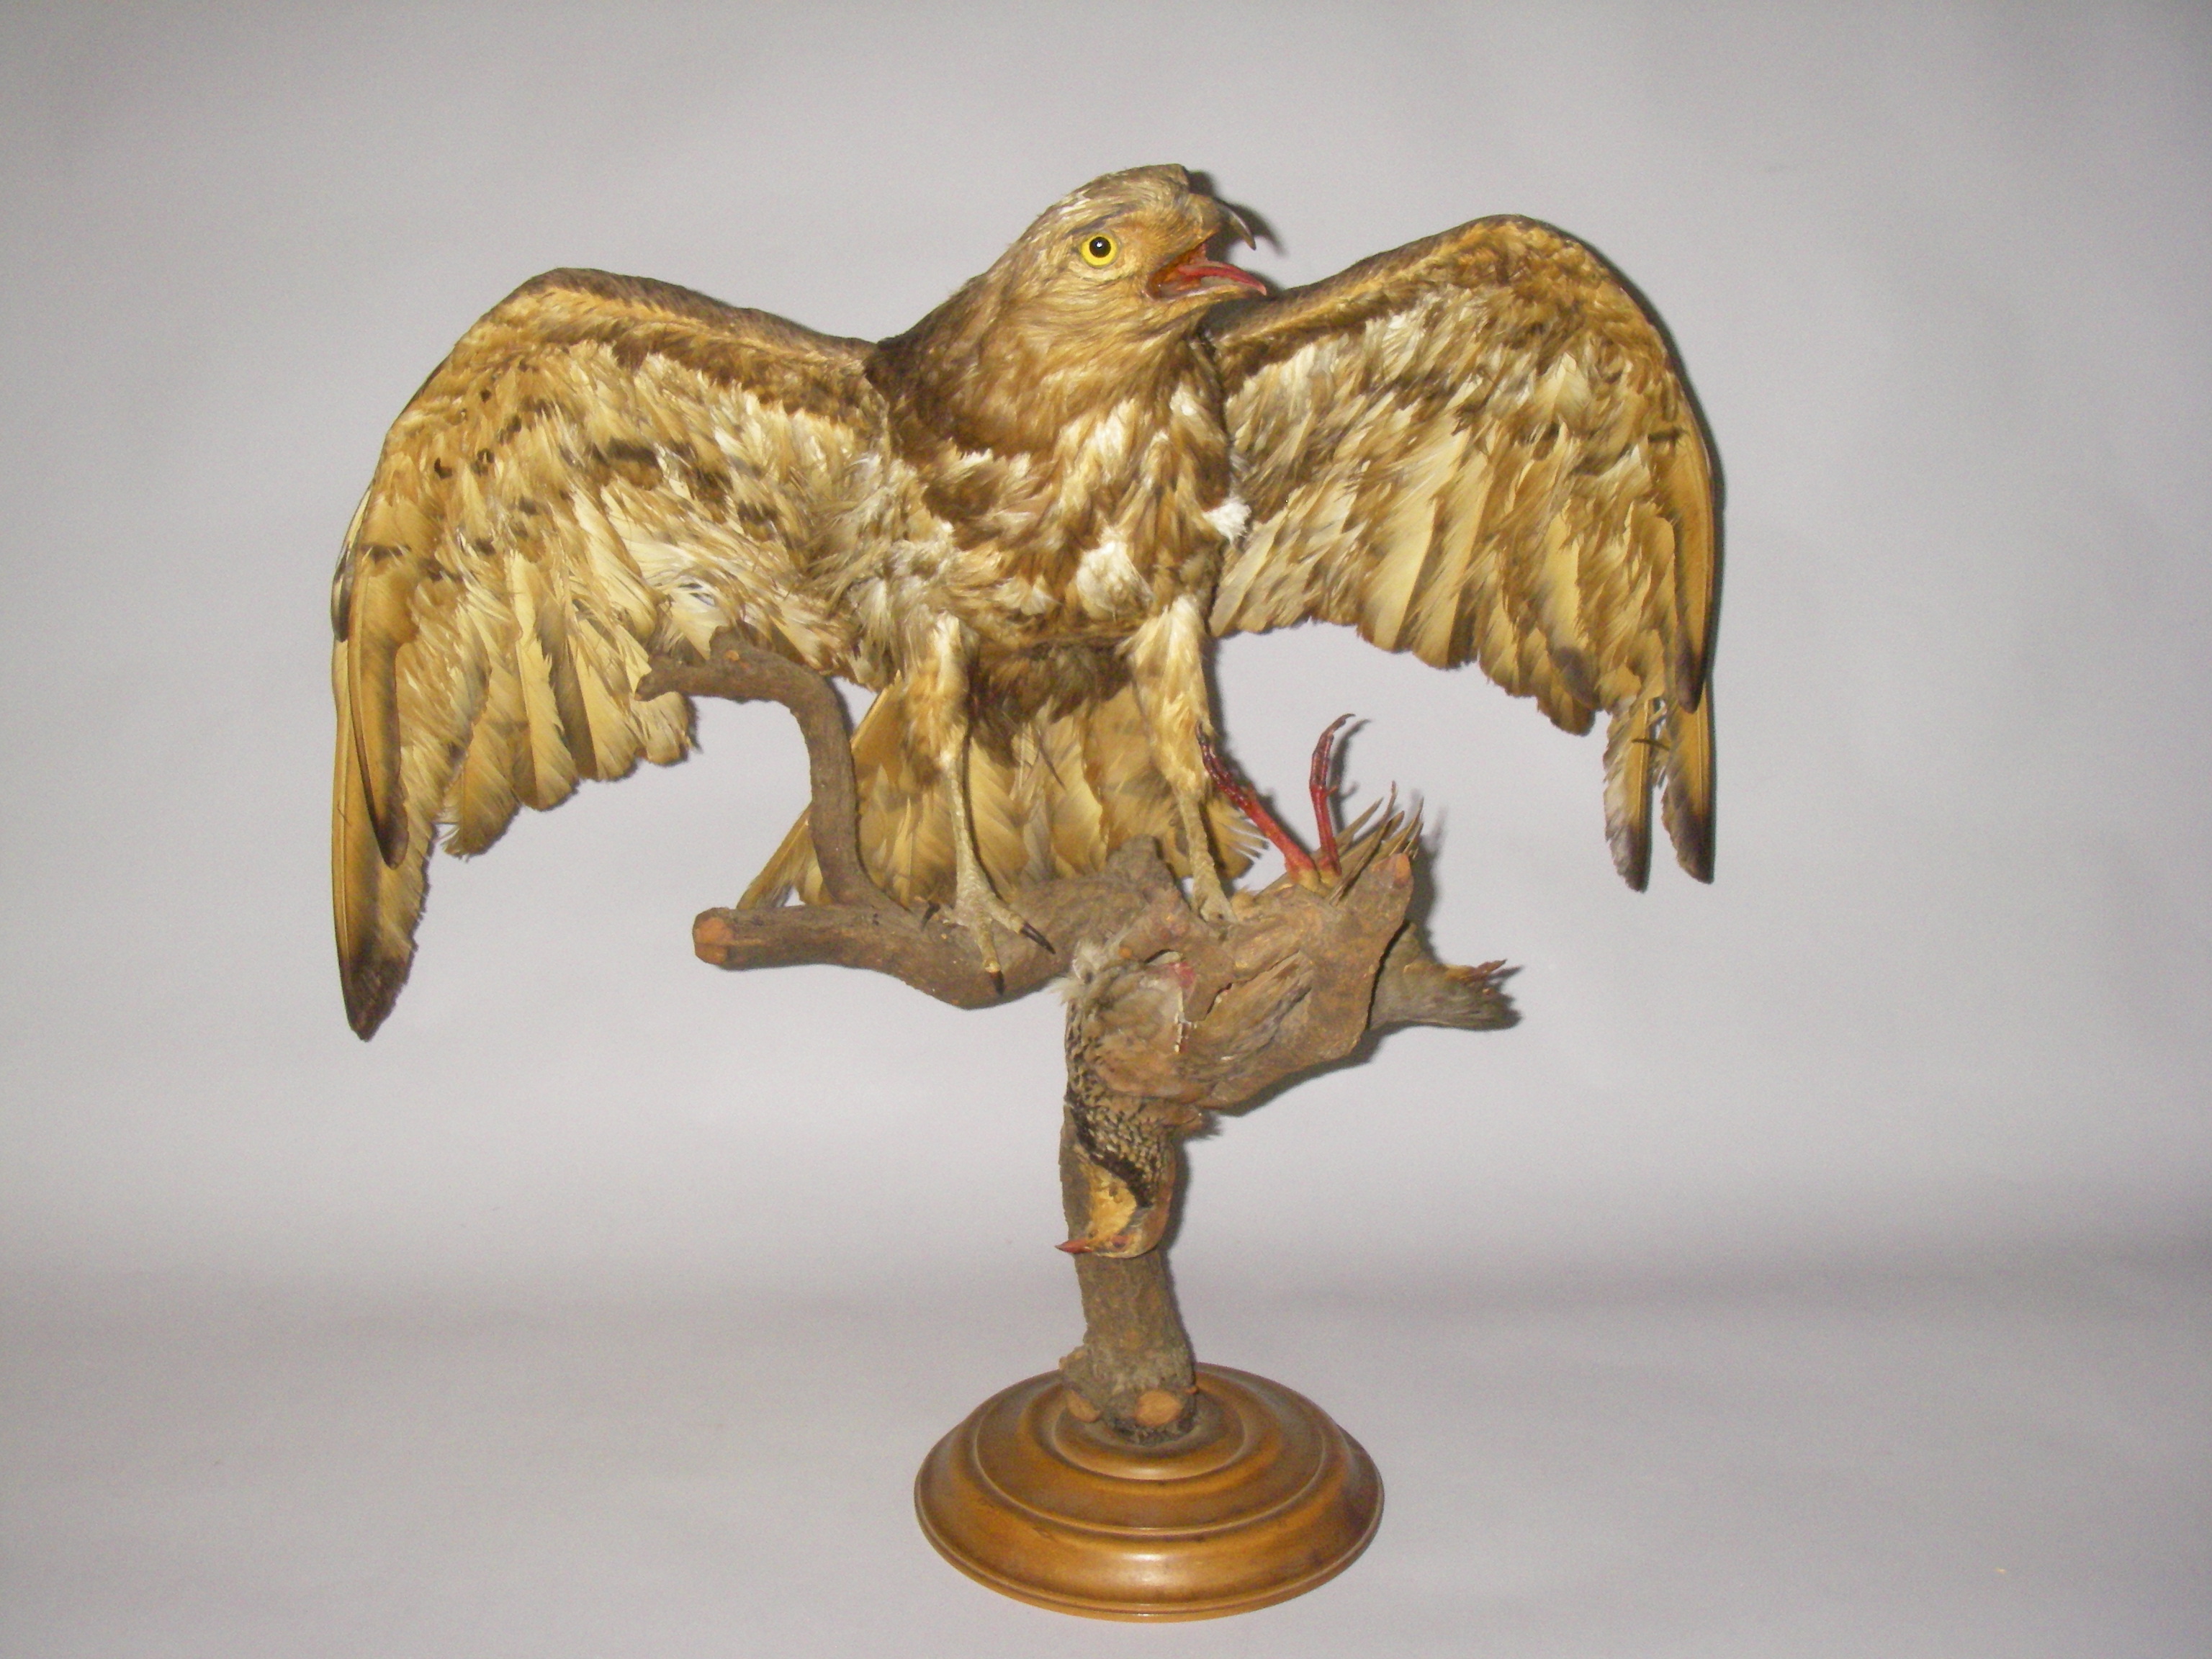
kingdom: Animalia
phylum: Chordata
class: Aves
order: Accipitriformes
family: Accipitridae
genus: Circaetus
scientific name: Circaetus gallicus
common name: Short-toed snake eagle
